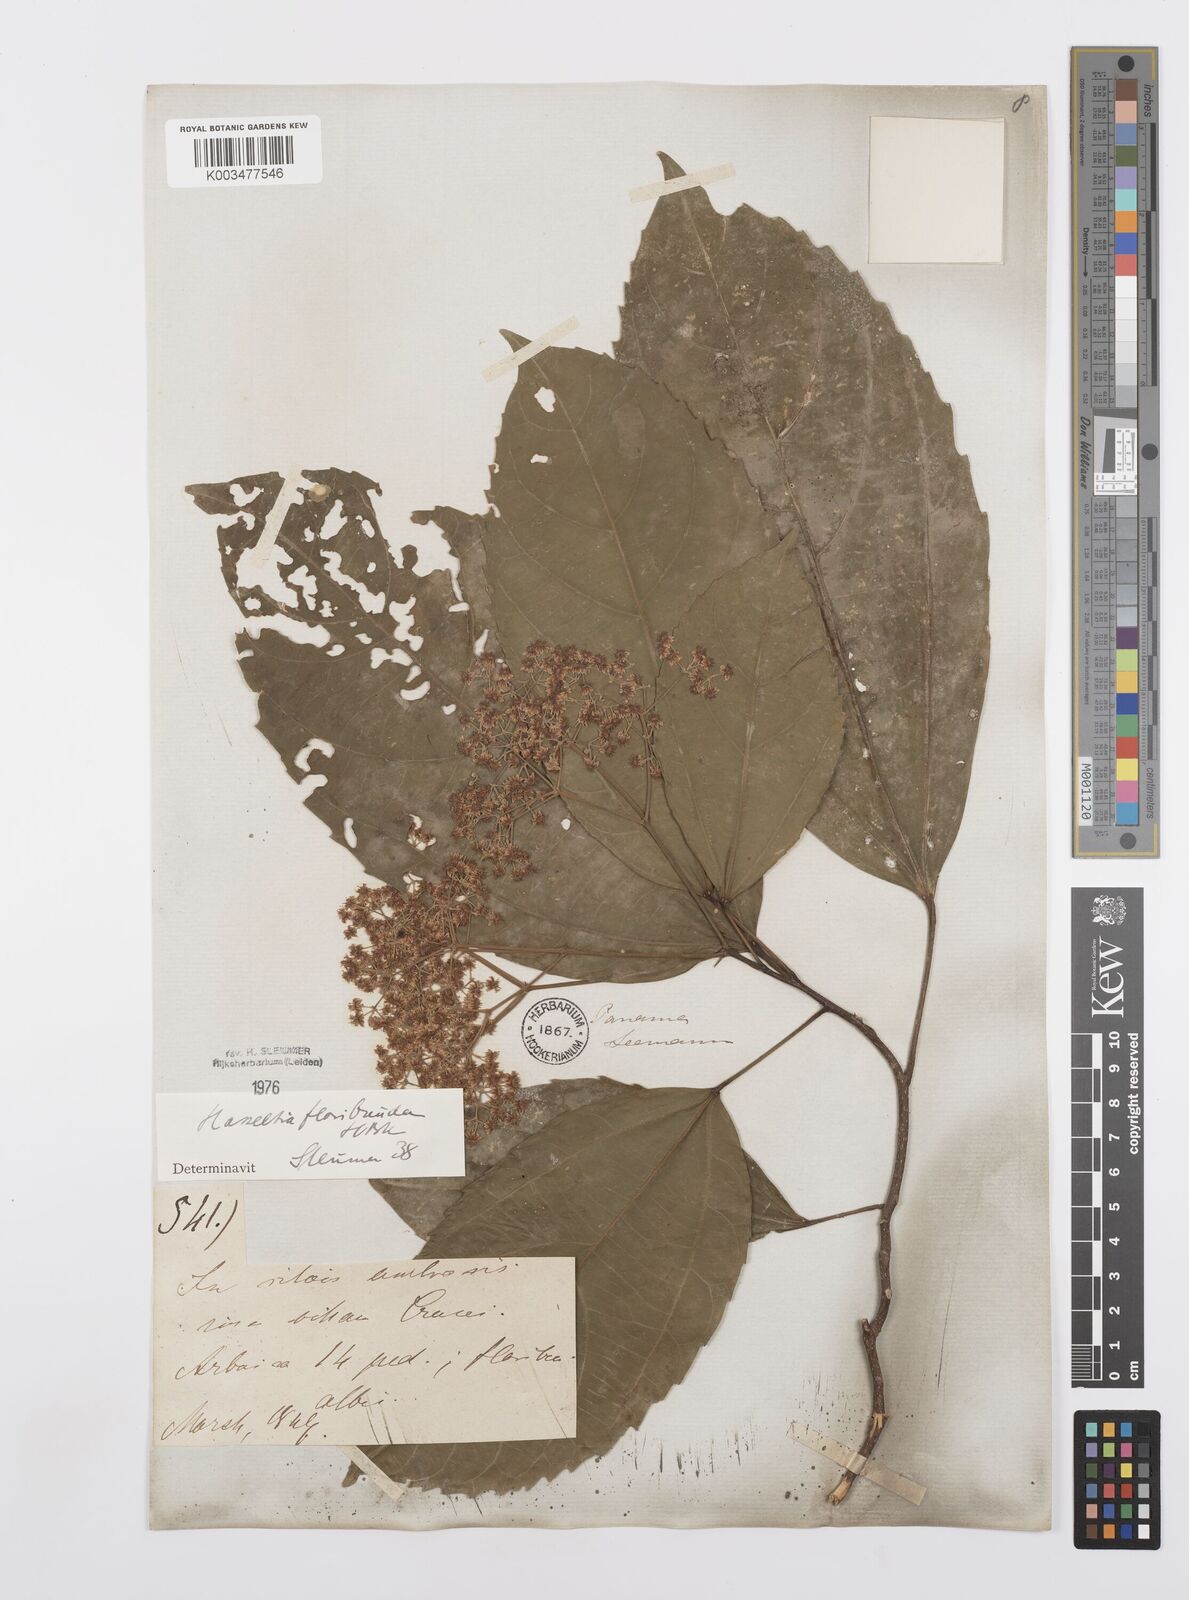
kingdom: Plantae
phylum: Tracheophyta
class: Magnoliopsida
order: Malpighiales
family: Salicaceae
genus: Hasseltia
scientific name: Hasseltia floribunda
